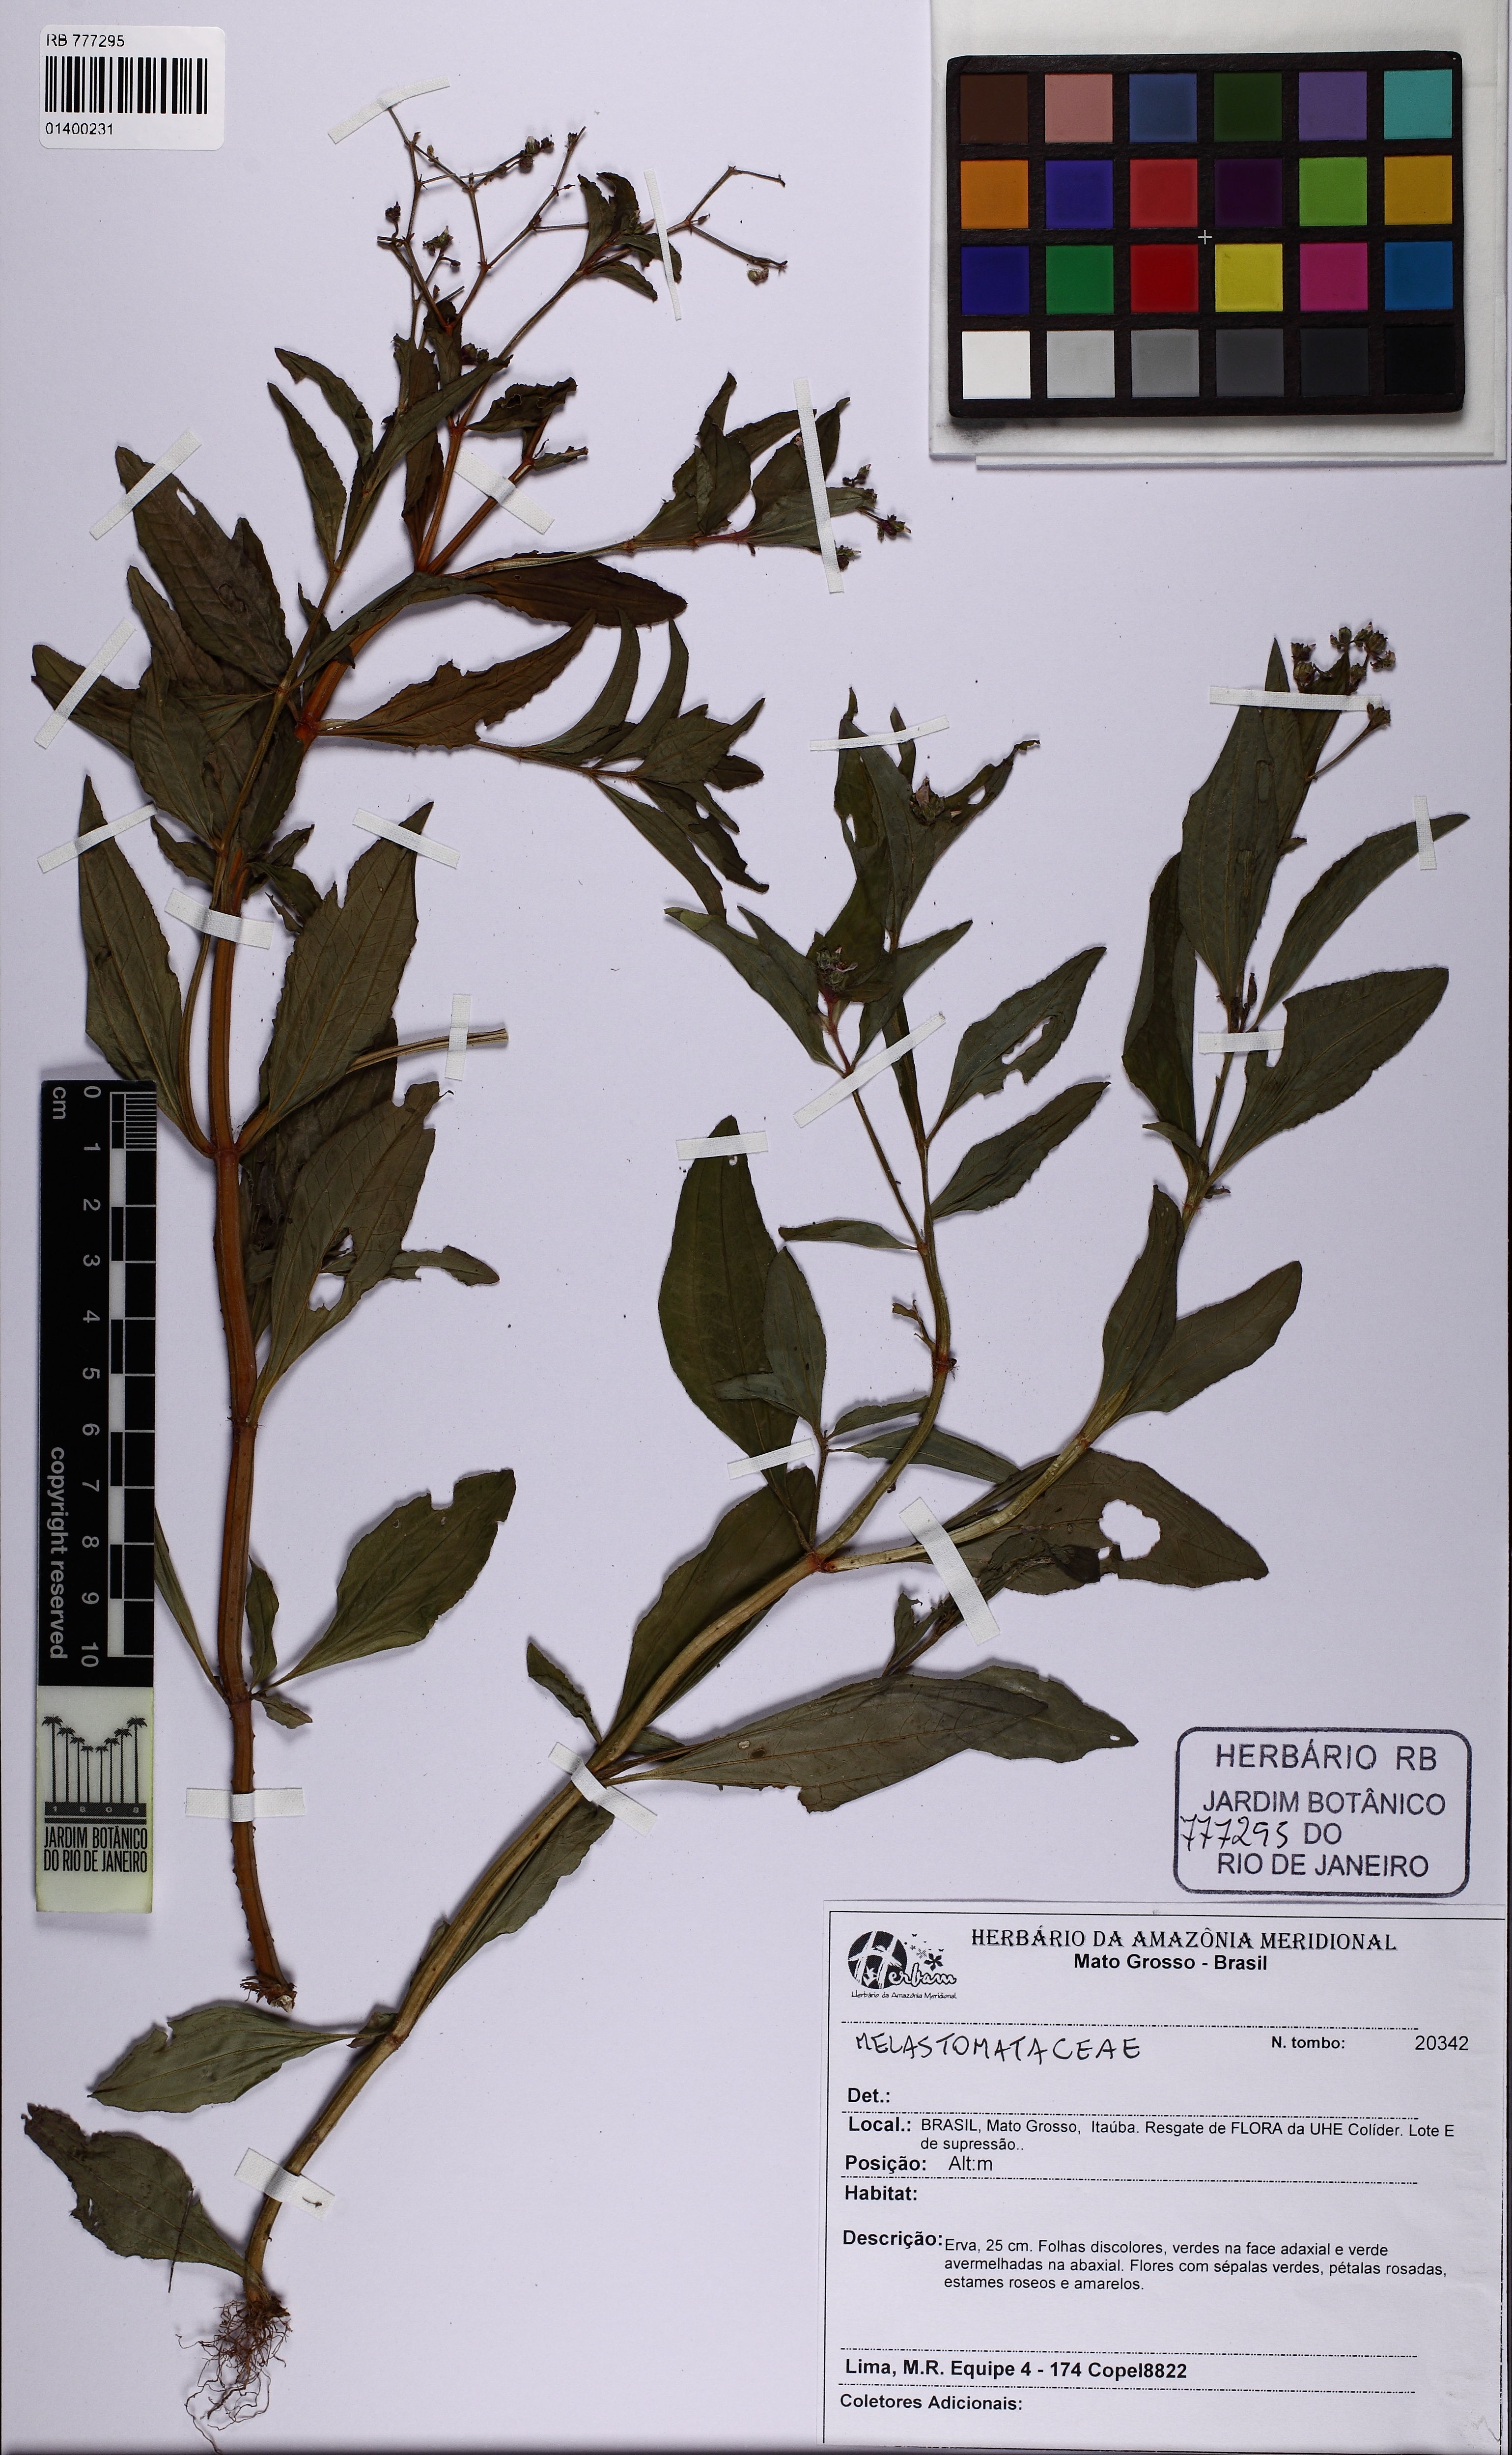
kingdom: Plantae
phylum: Tracheophyta
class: Magnoliopsida
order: Myrtales
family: Melastomataceae
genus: Aciotis
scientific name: Aciotis acuminifolia
